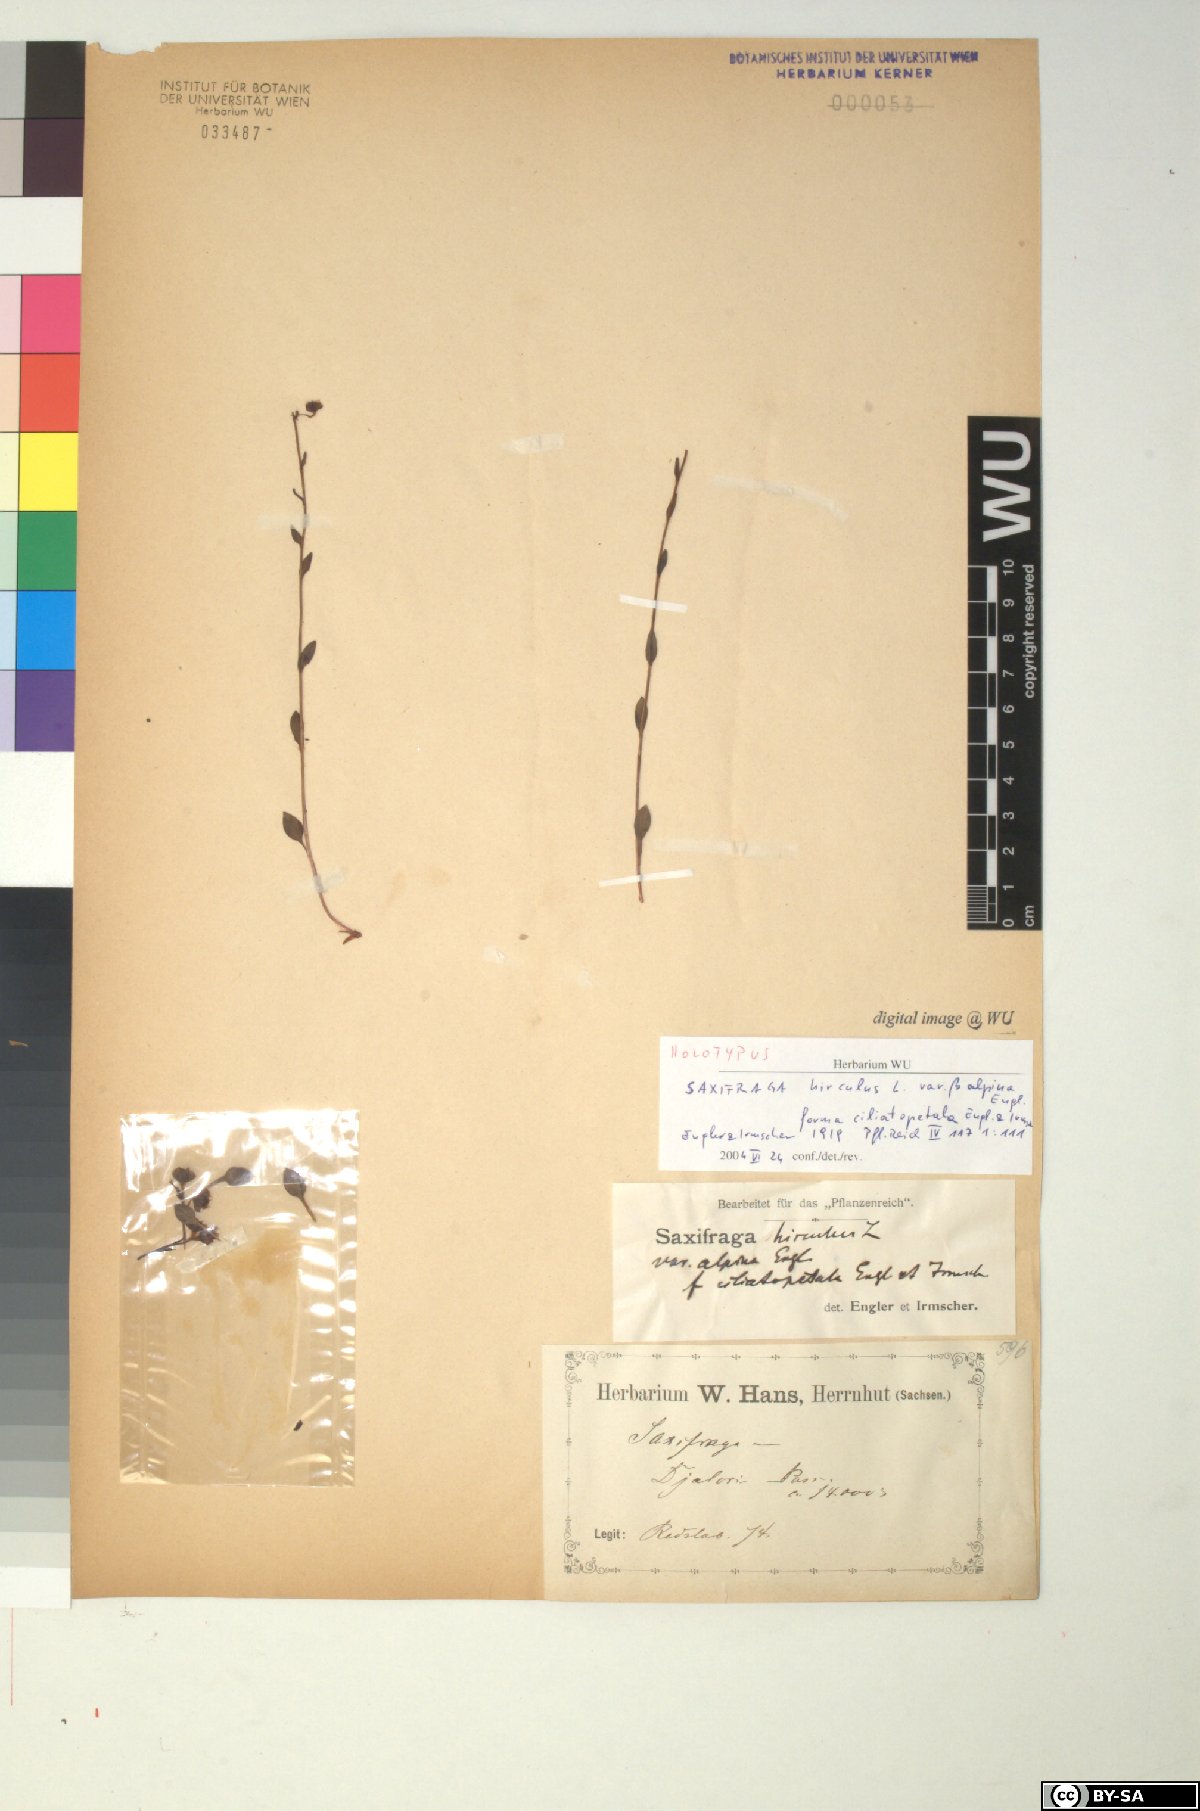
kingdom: Plantae
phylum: Tracheophyta
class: Magnoliopsida
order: Saxifragales
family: Saxifragaceae
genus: Saxifraga
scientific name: Saxifraga ciliatopetala
